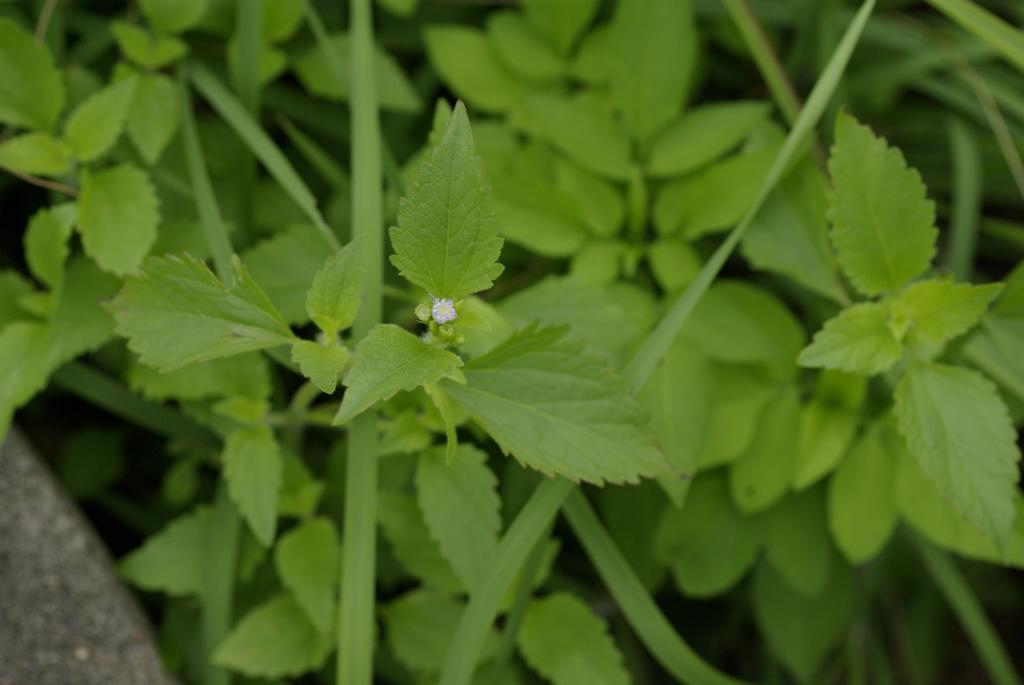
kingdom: Plantae
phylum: Tracheophyta
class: Magnoliopsida
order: Asterales
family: Asteraceae
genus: Praxelis
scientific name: Praxelis clematidea
